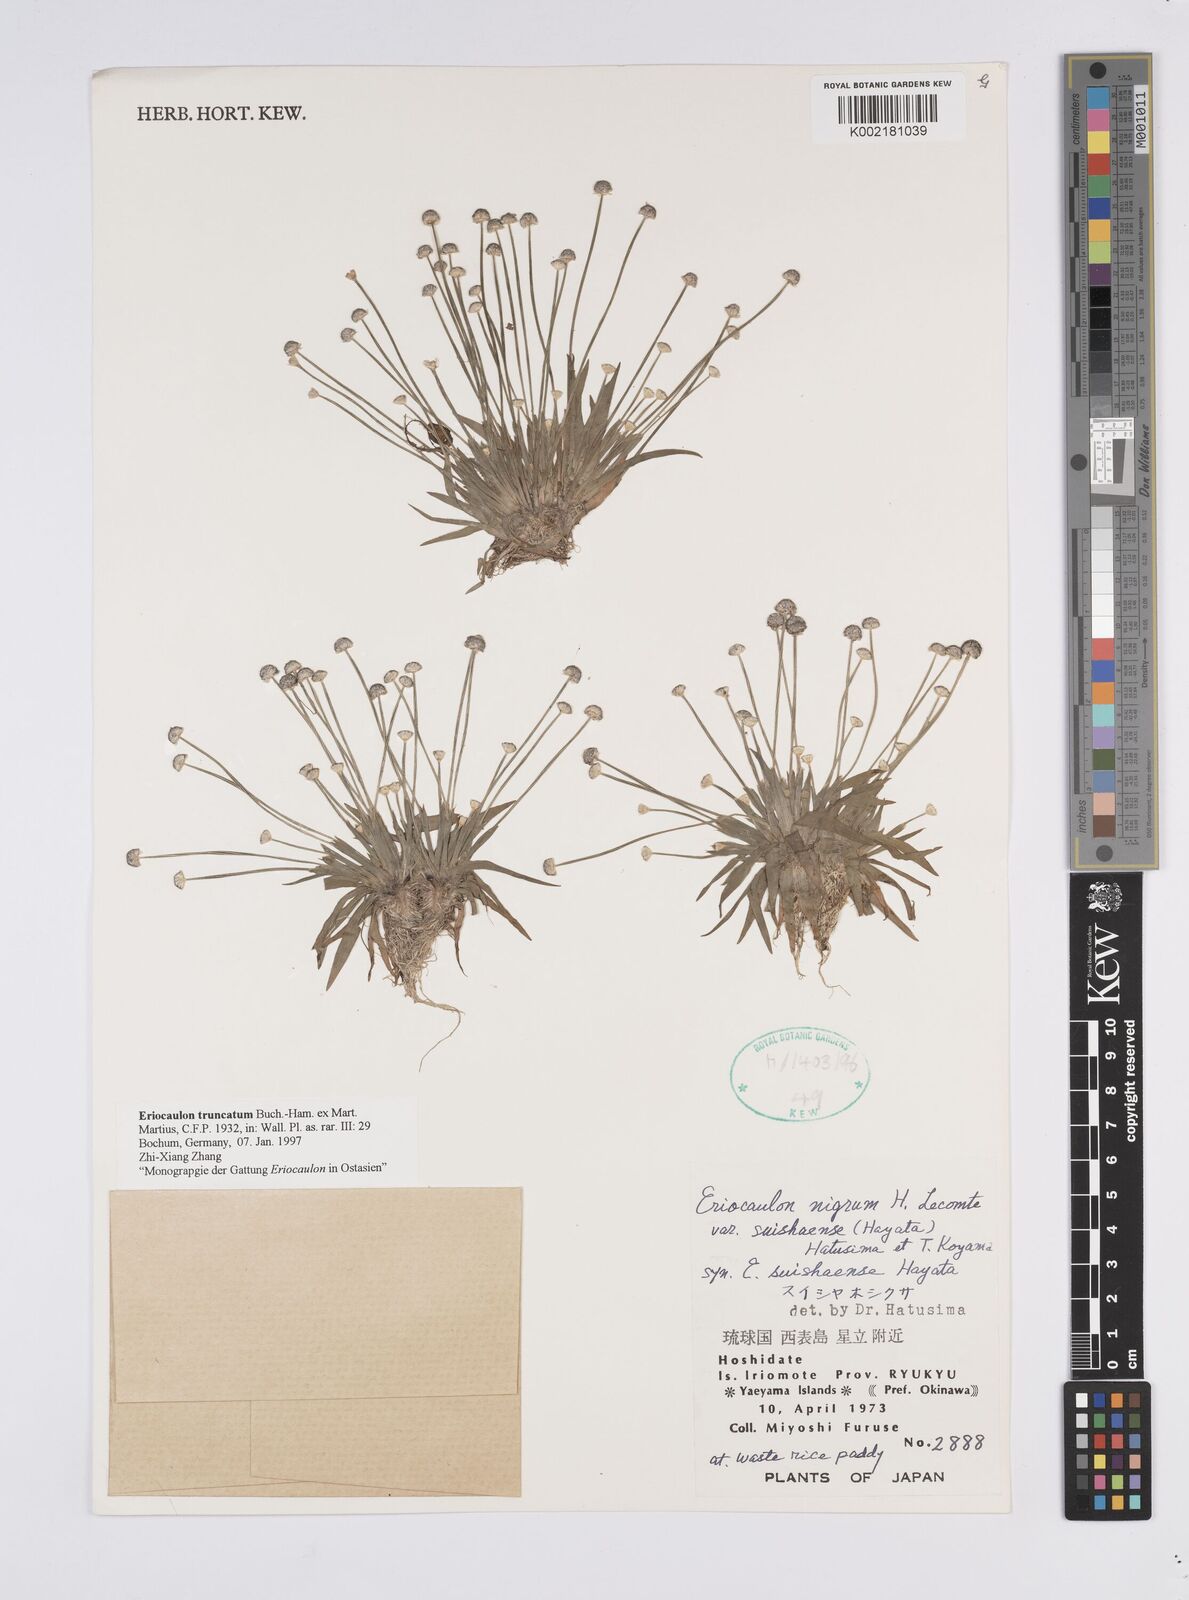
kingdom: Plantae
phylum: Tracheophyta
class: Liliopsida
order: Poales
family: Eriocaulaceae
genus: Eriocaulon
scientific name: Eriocaulon truncatum
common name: Short pipe-wort
